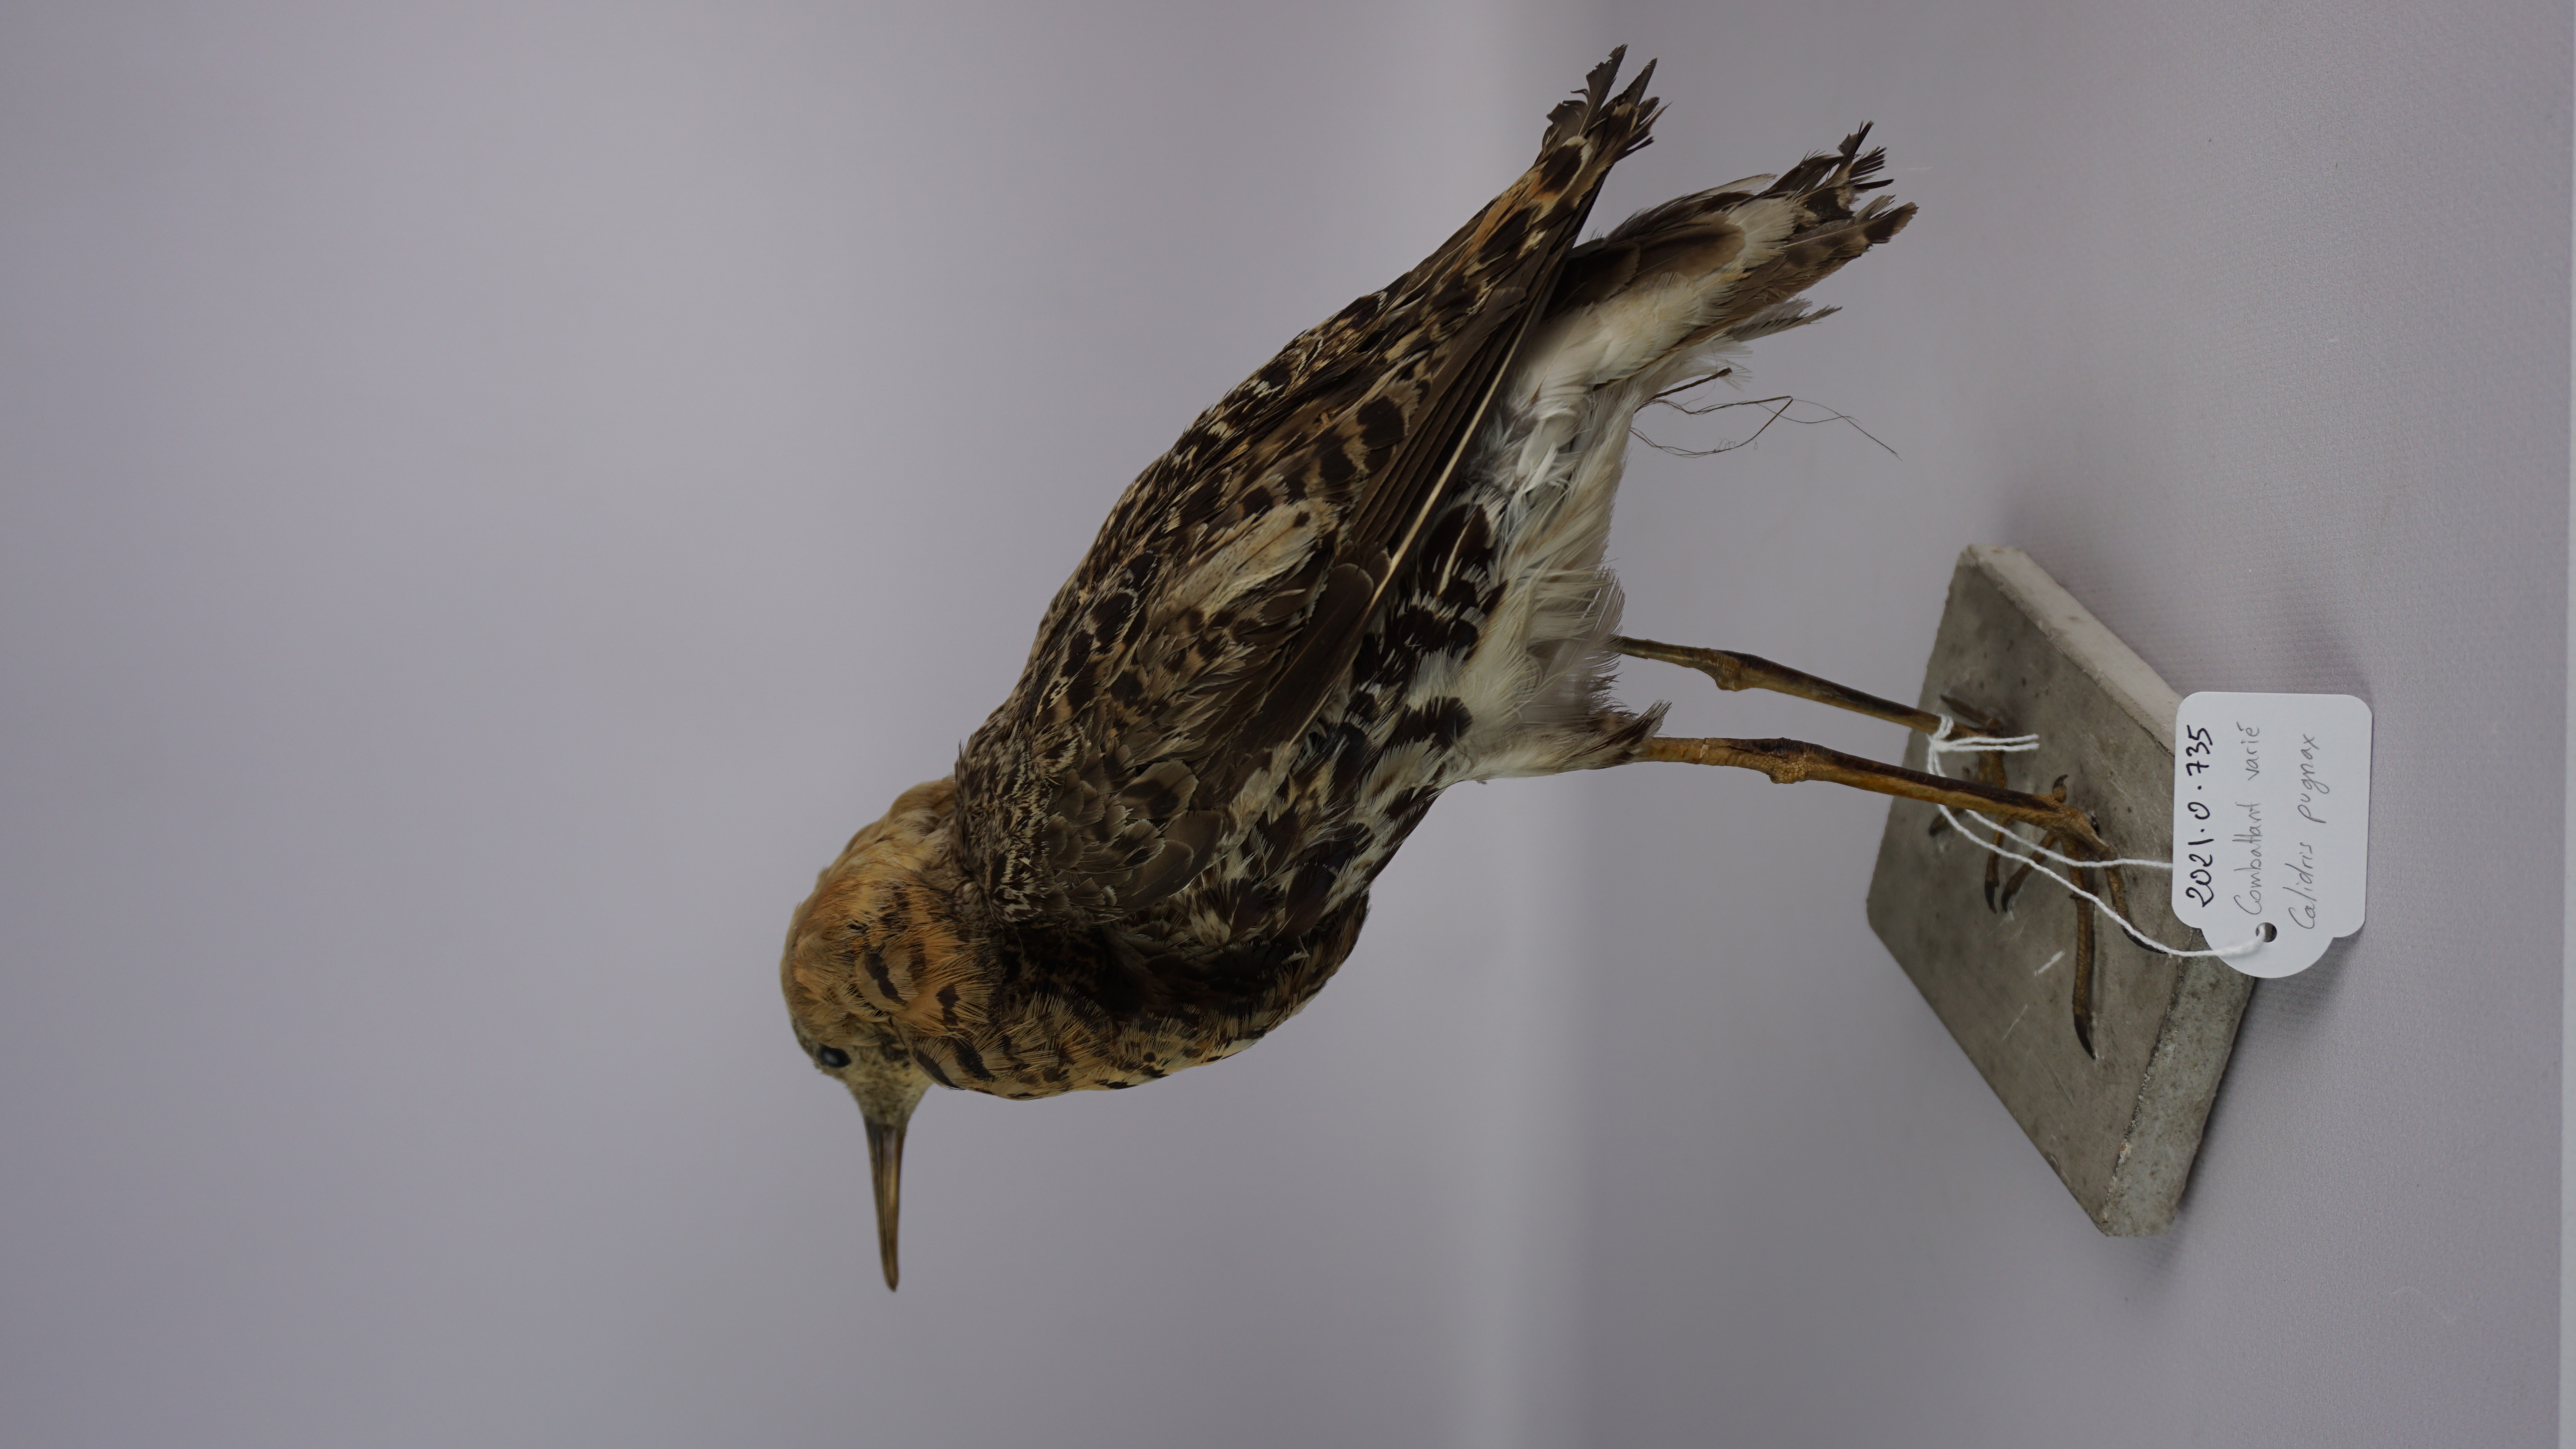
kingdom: Animalia
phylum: Chordata
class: Aves
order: Charadriiformes
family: Scolopacidae
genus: Calidris
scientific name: Calidris pugnax
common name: Ruff
